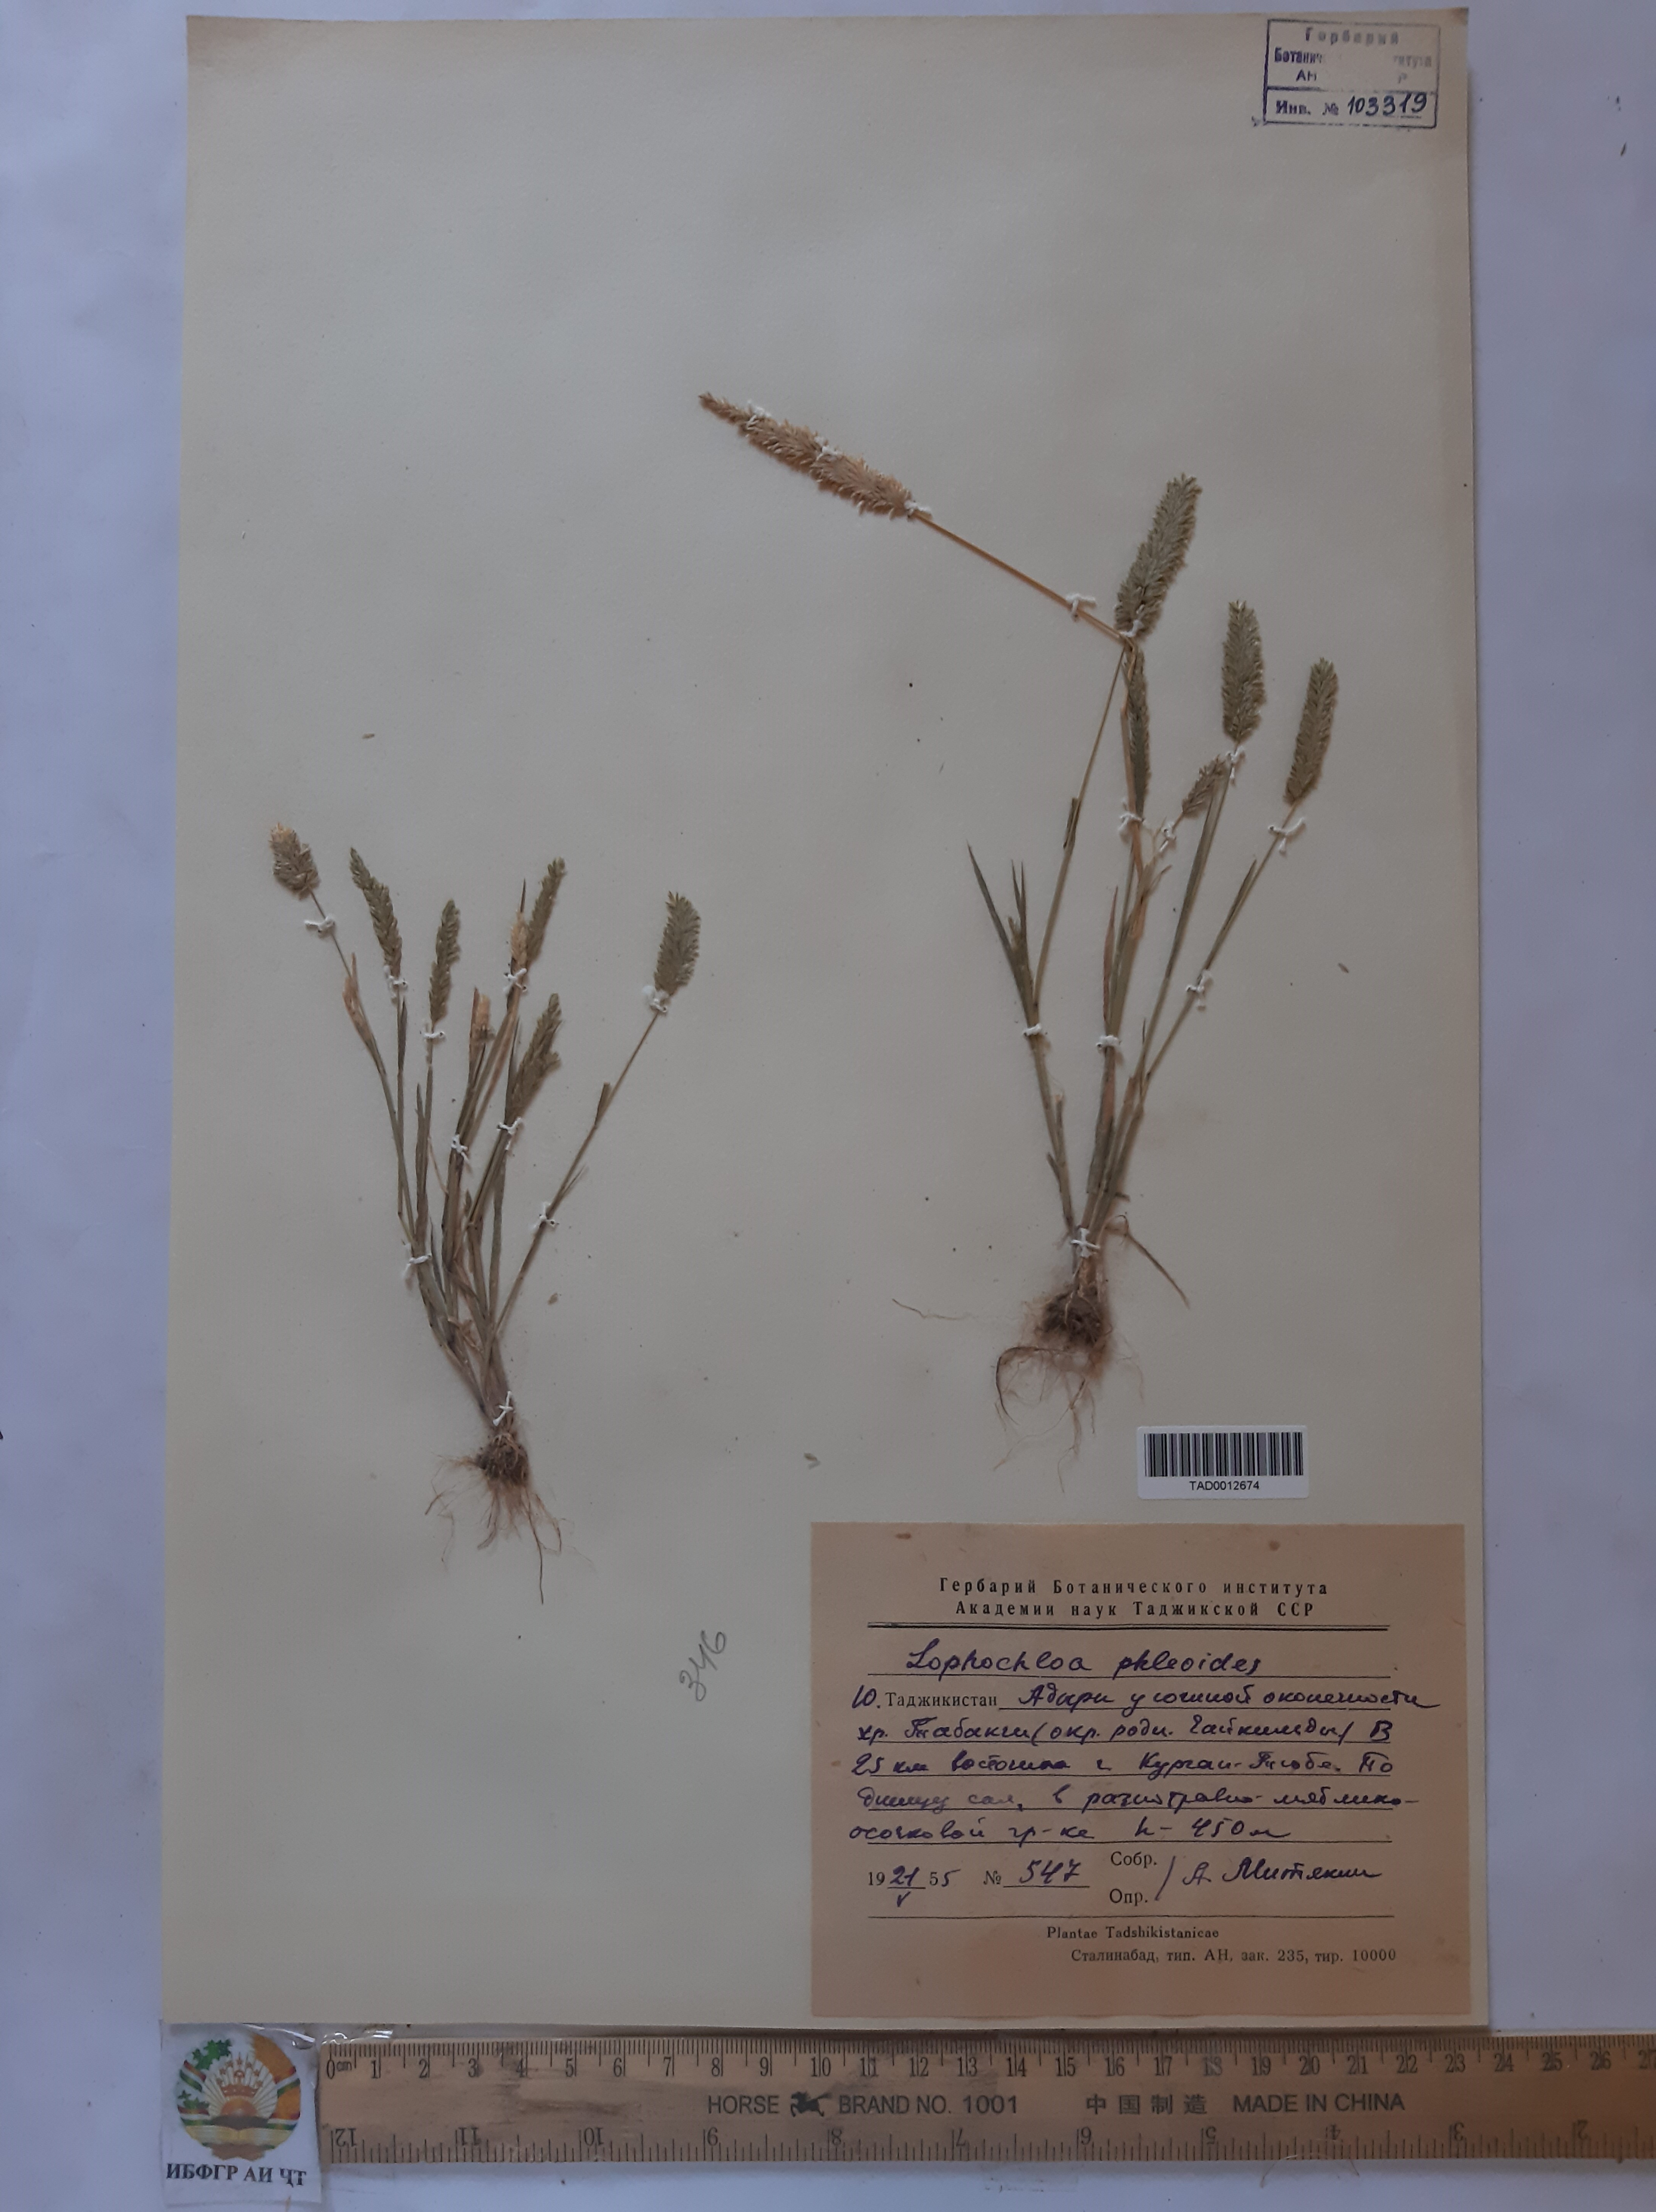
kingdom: Plantae
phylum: Tracheophyta
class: Liliopsida
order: Poales
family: Poaceae
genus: Rostraria
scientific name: Rostraria cristata
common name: Mediterranean hair-grass
